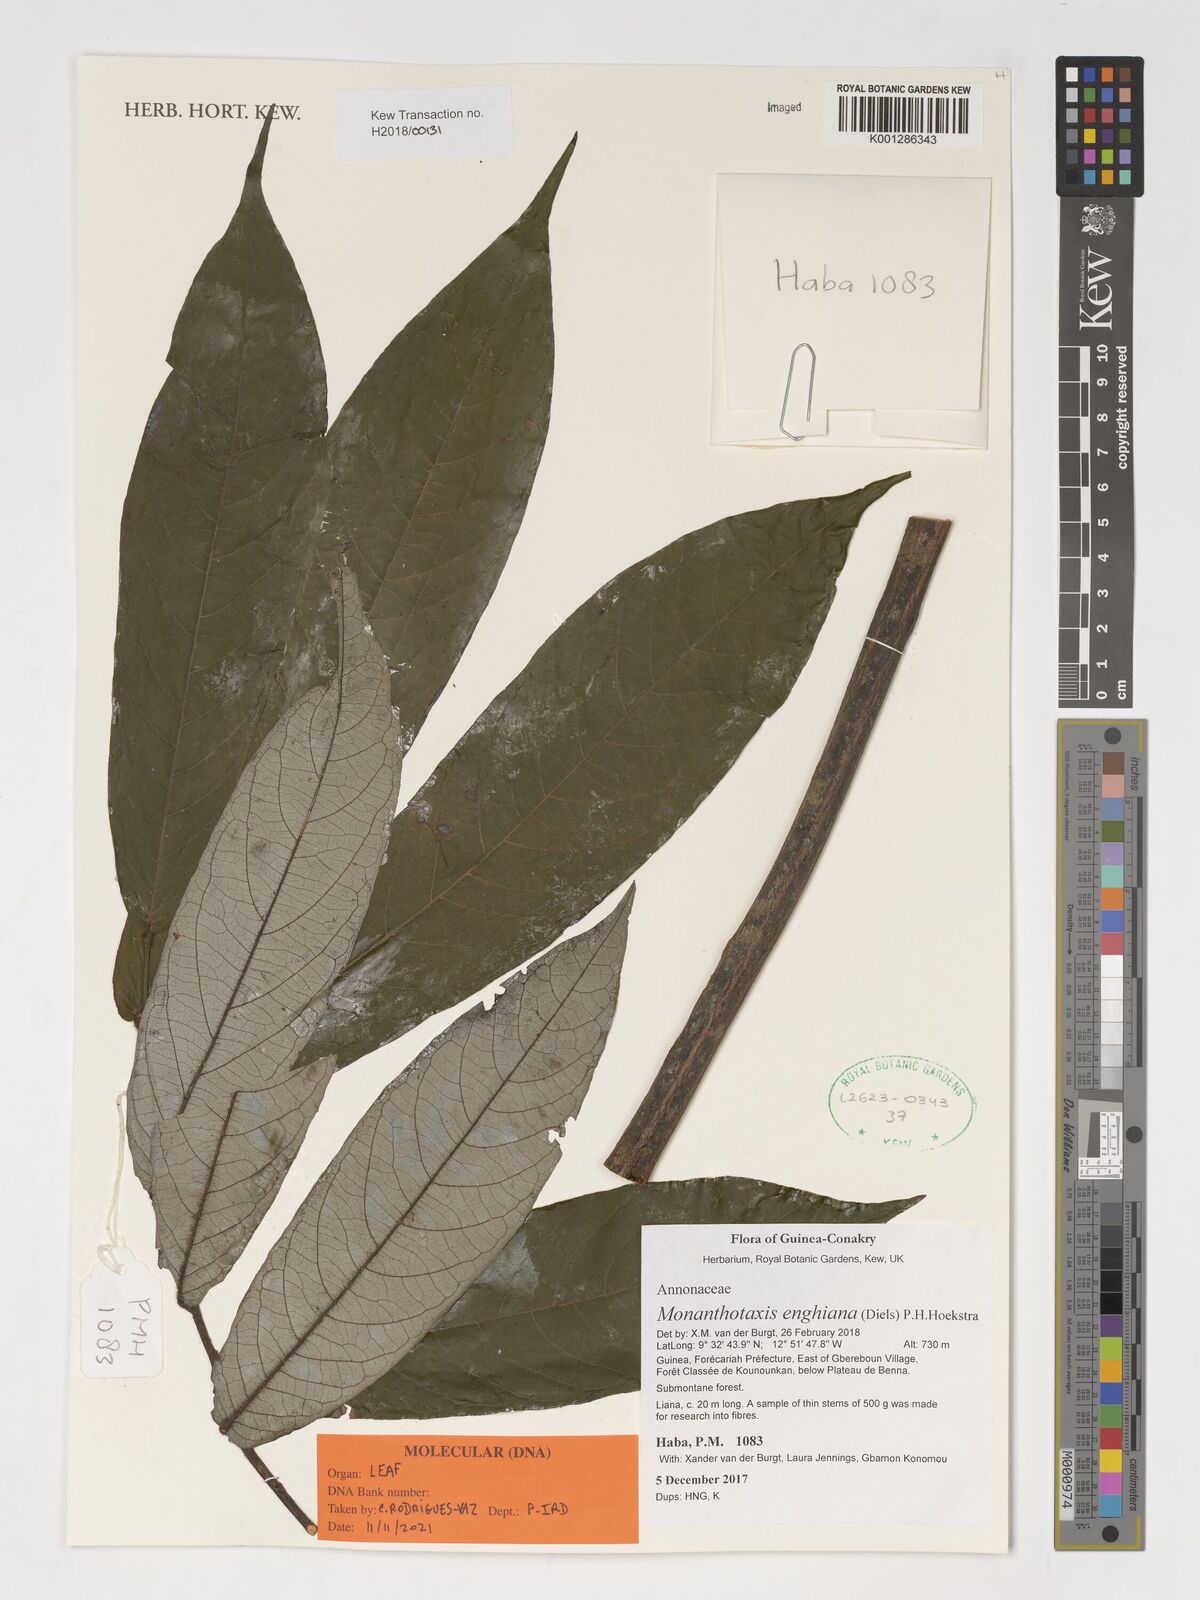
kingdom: Plantae
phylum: Tracheophyta
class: Magnoliopsida
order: Magnoliales
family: Annonaceae
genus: Friesodielsia
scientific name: Friesodielsia enghiana
